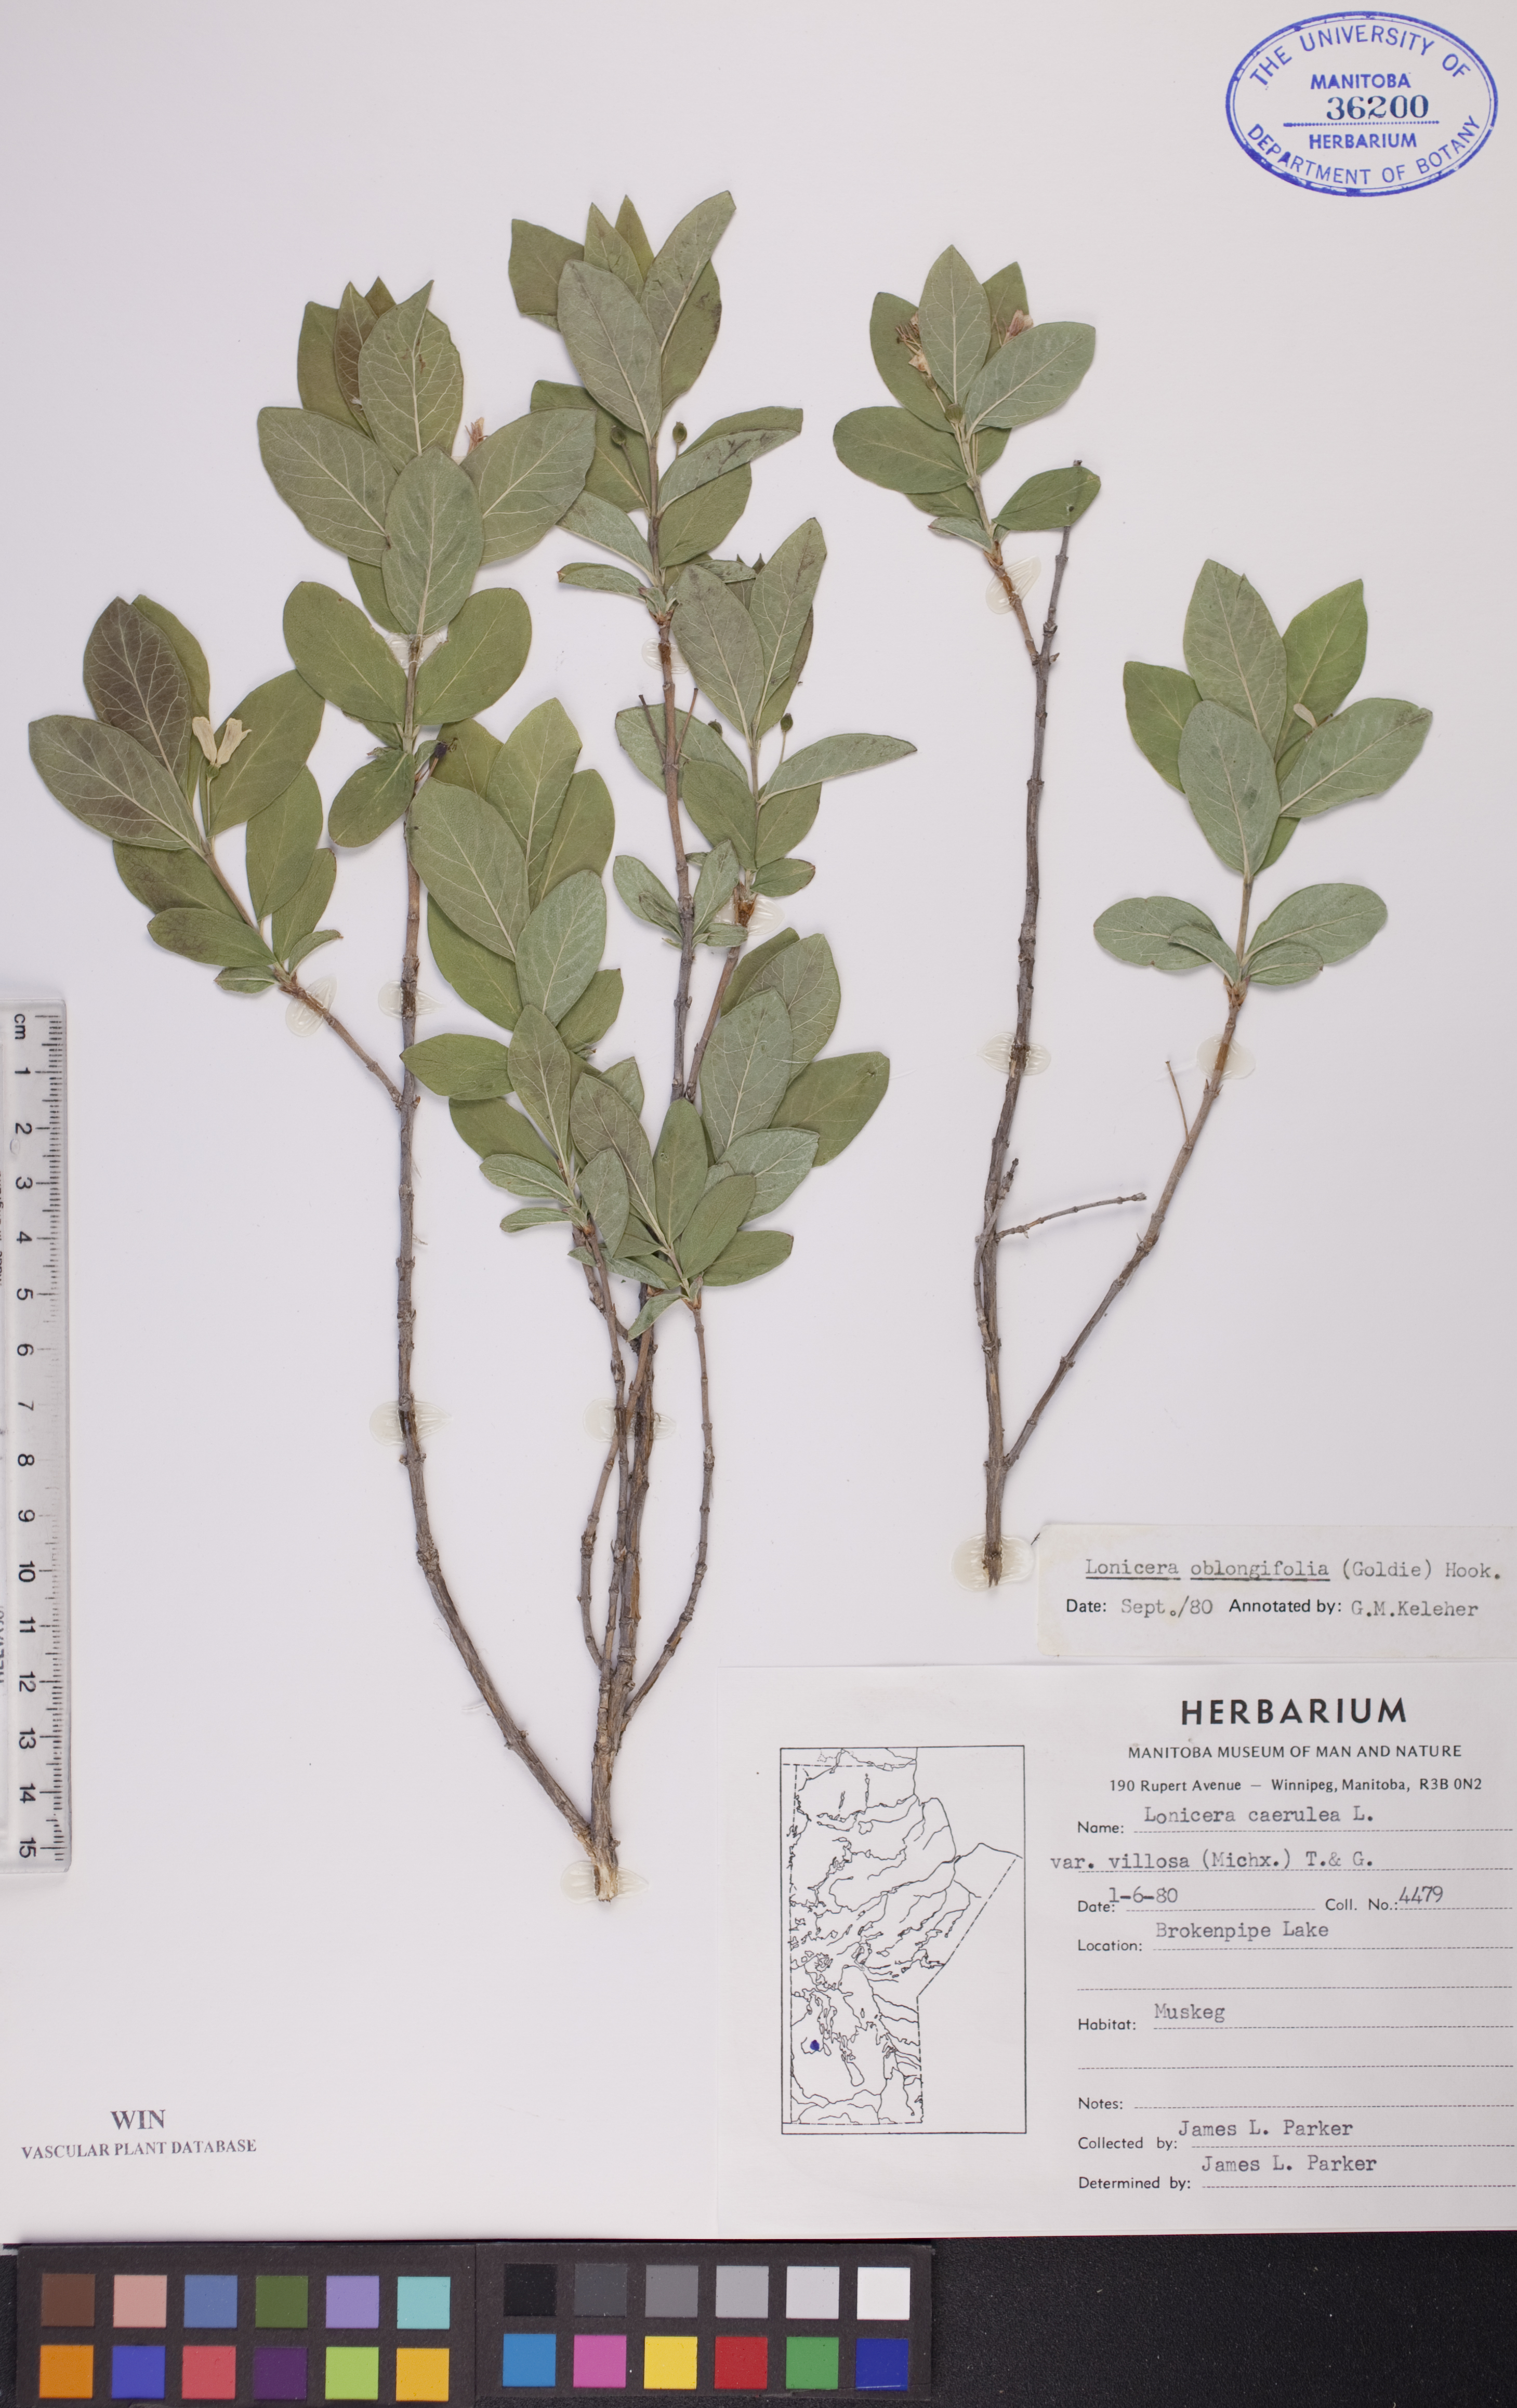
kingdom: Plantae
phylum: Tracheophyta
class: Magnoliopsida
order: Dipsacales
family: Caprifoliaceae
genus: Lonicera
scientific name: Lonicera oblongifolia
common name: Swamp fly honeysuckle
